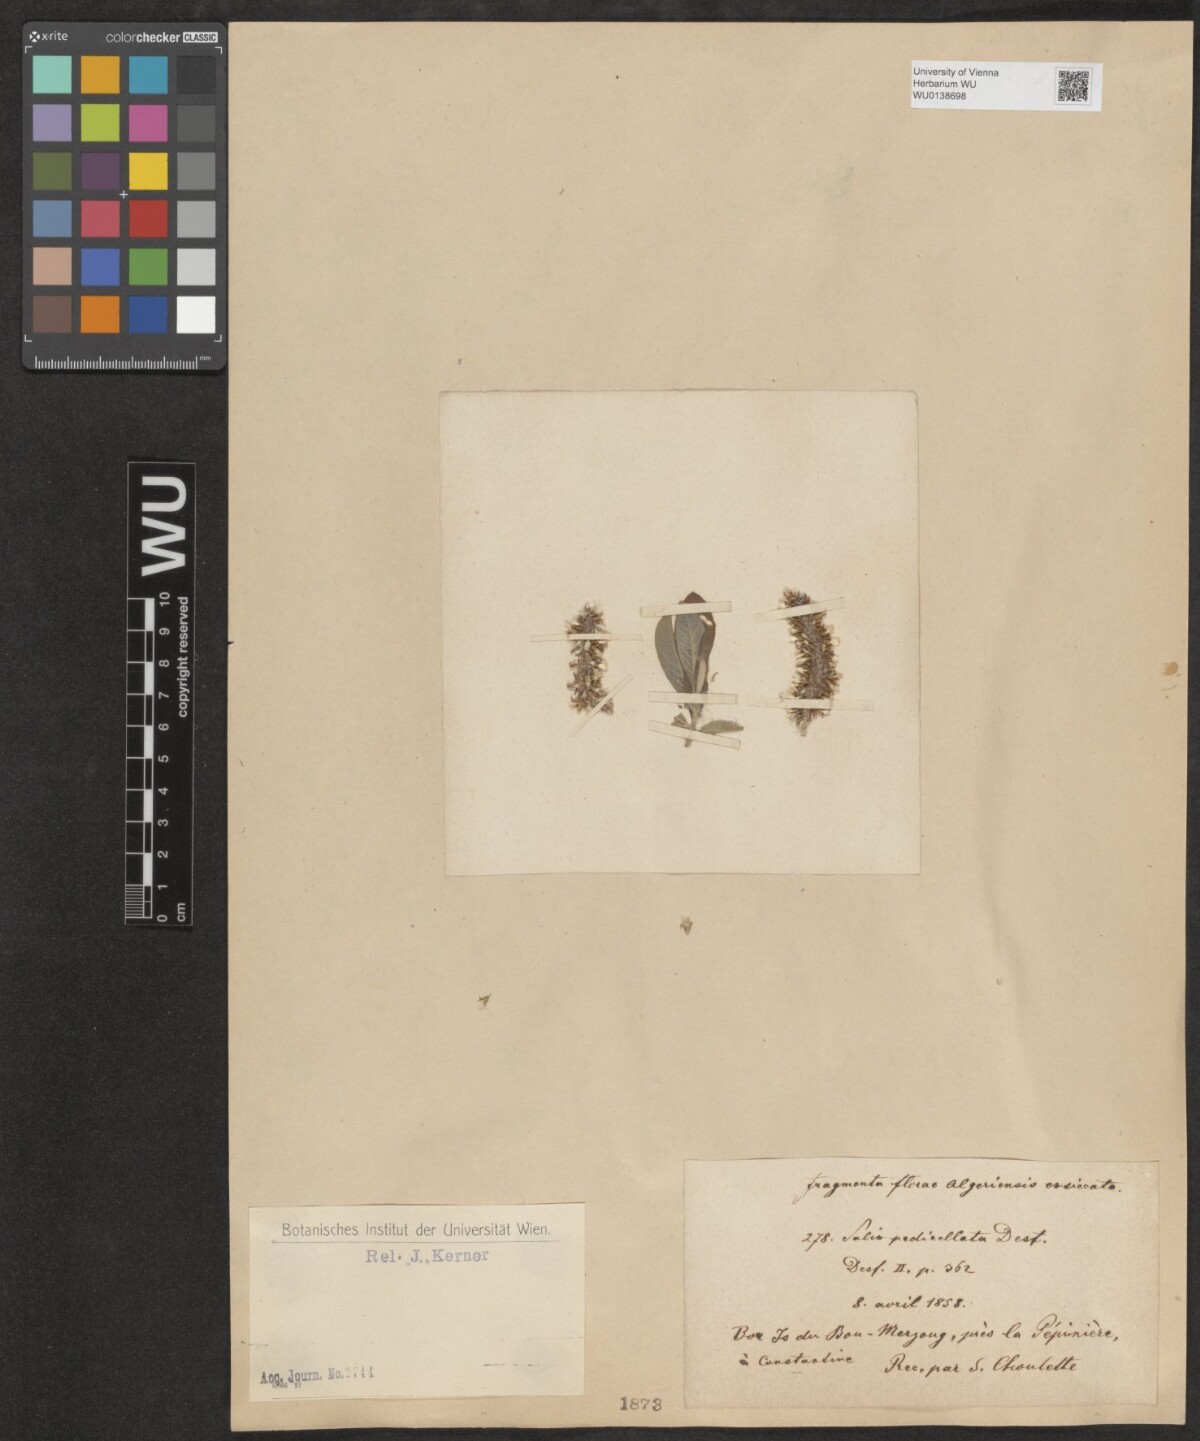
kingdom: Plantae
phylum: Tracheophyta
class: Magnoliopsida
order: Malpighiales
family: Salicaceae
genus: Salix
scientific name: Salix pedicellata
